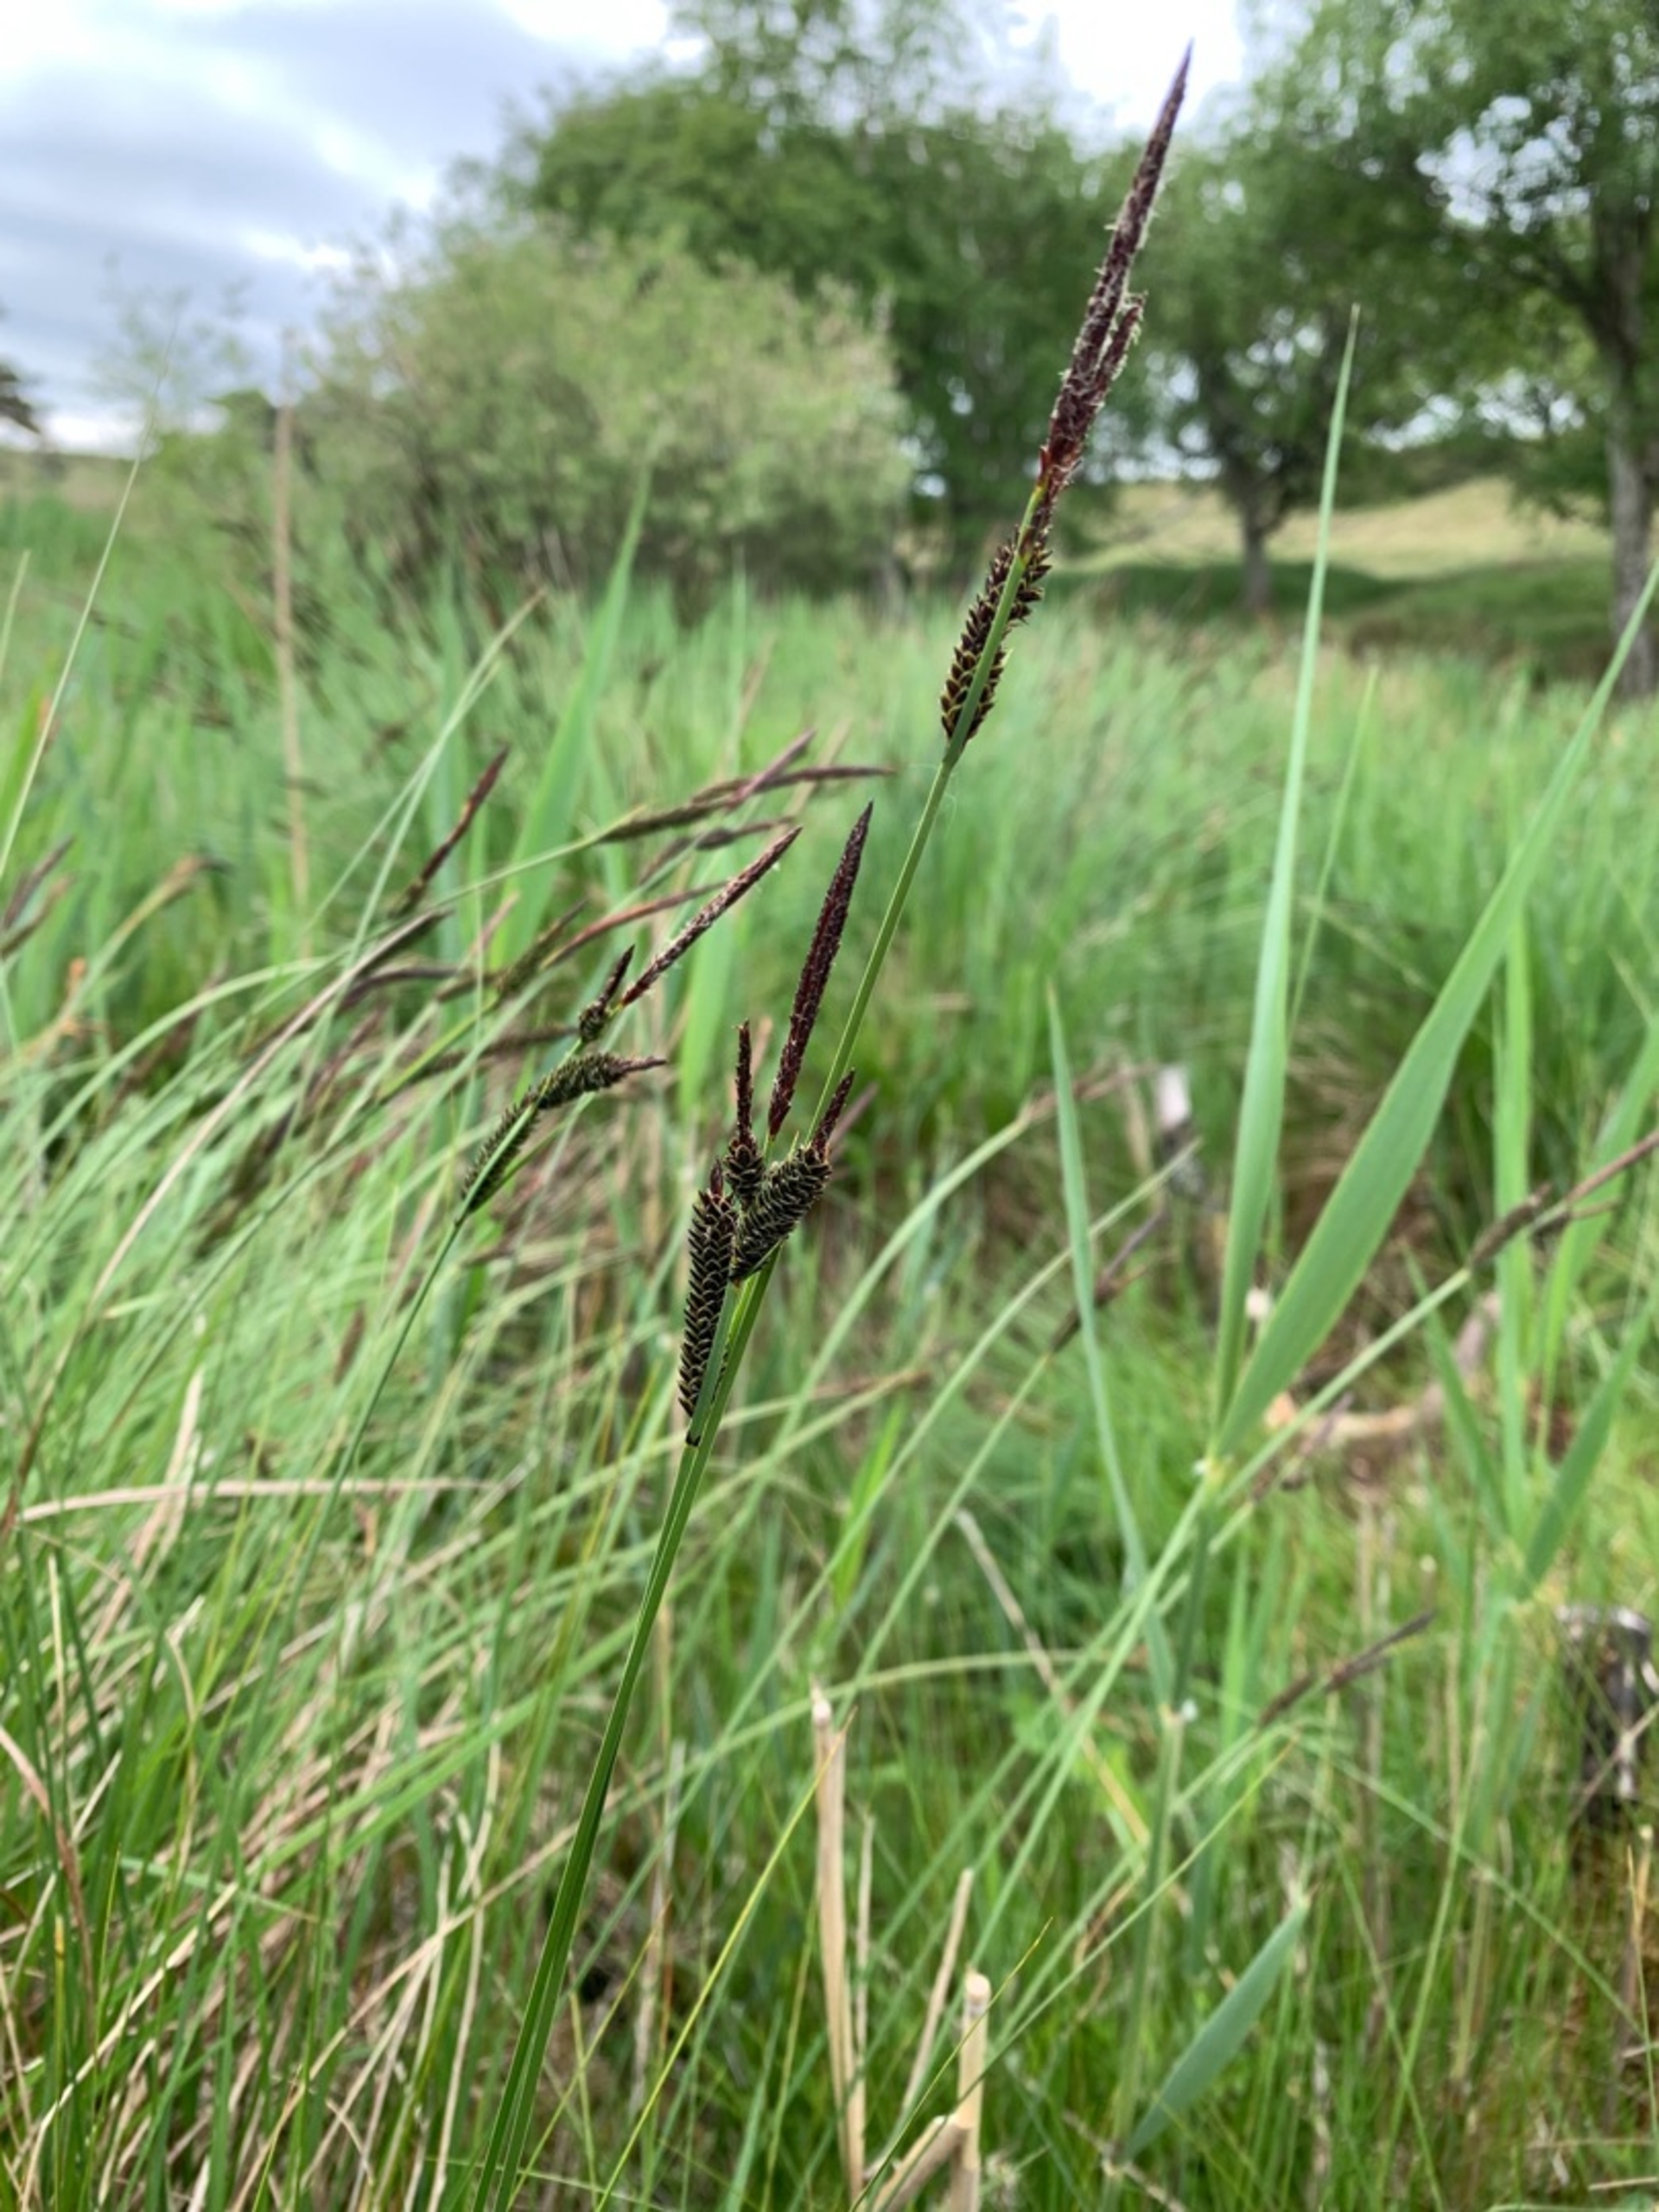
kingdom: Plantae
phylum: Tracheophyta
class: Liliopsida
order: Poales
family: Cyperaceae
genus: Carex
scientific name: Carex nigra
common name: Almindelig star
